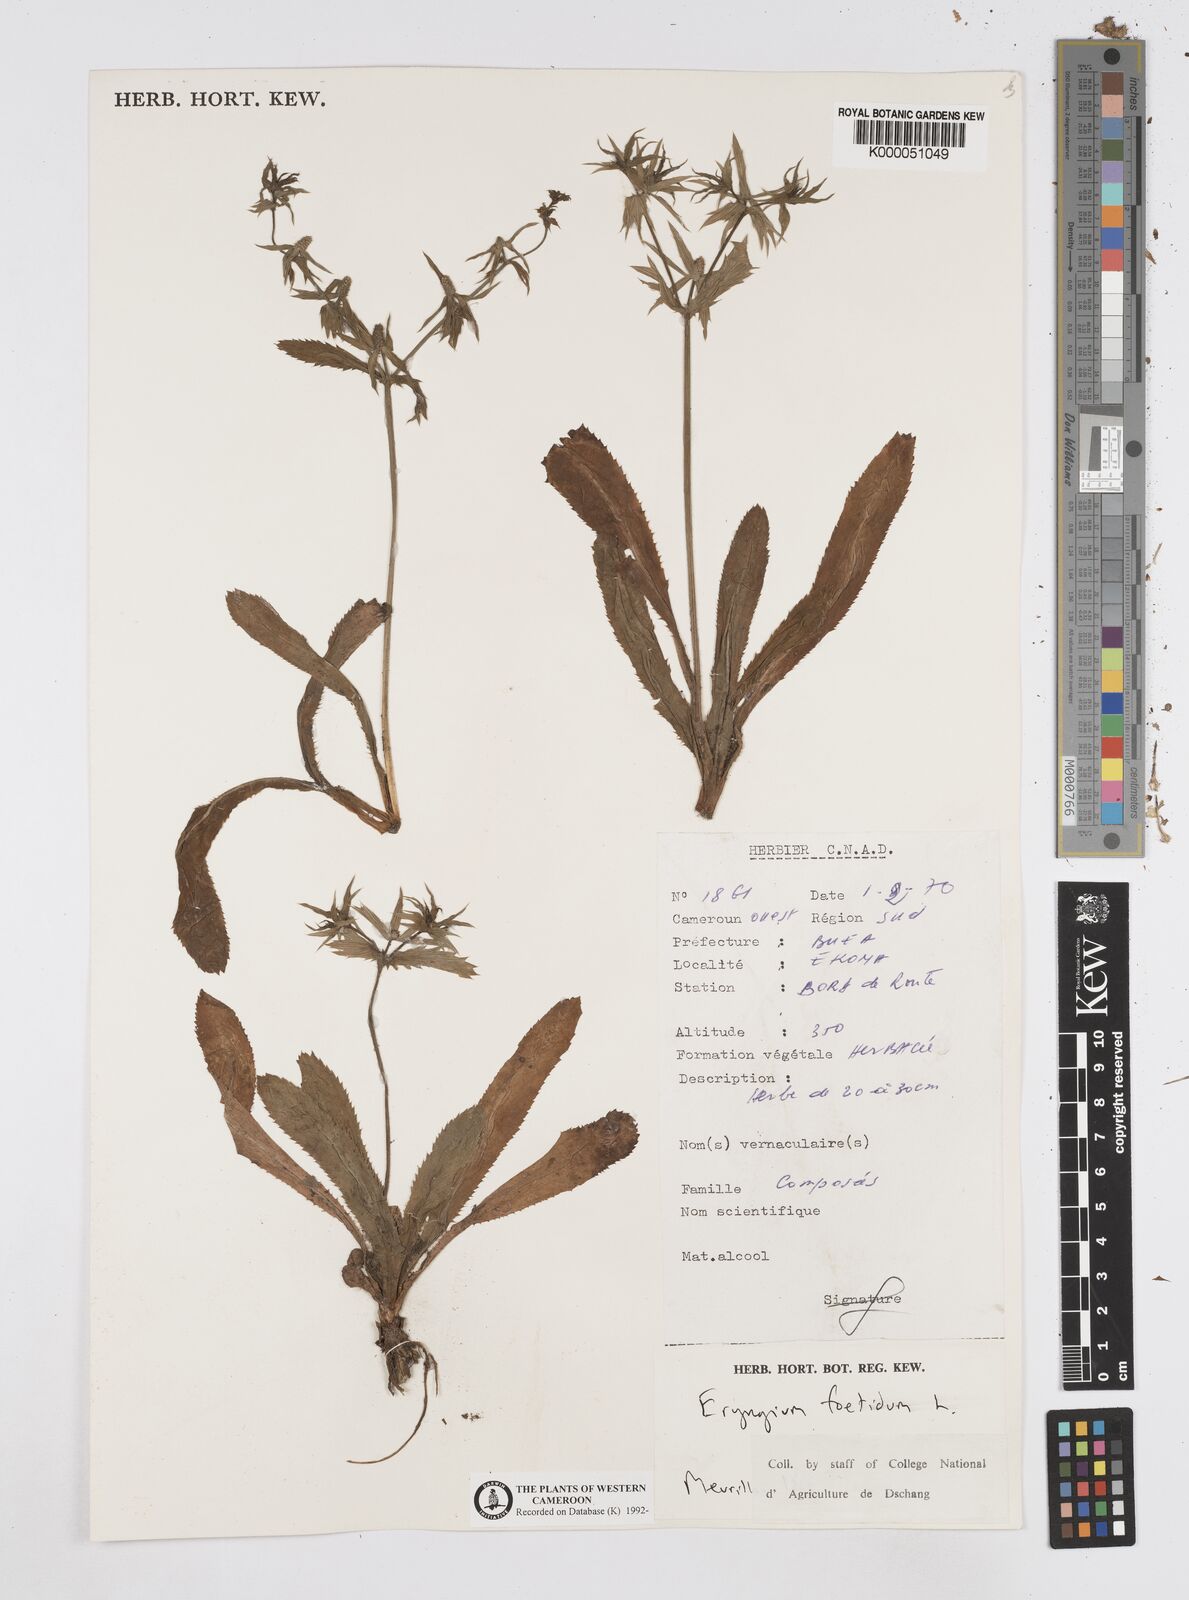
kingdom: Plantae
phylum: Tracheophyta
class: Magnoliopsida
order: Apiales
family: Apiaceae
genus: Eryngium
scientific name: Eryngium foetidum
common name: Fitweed
